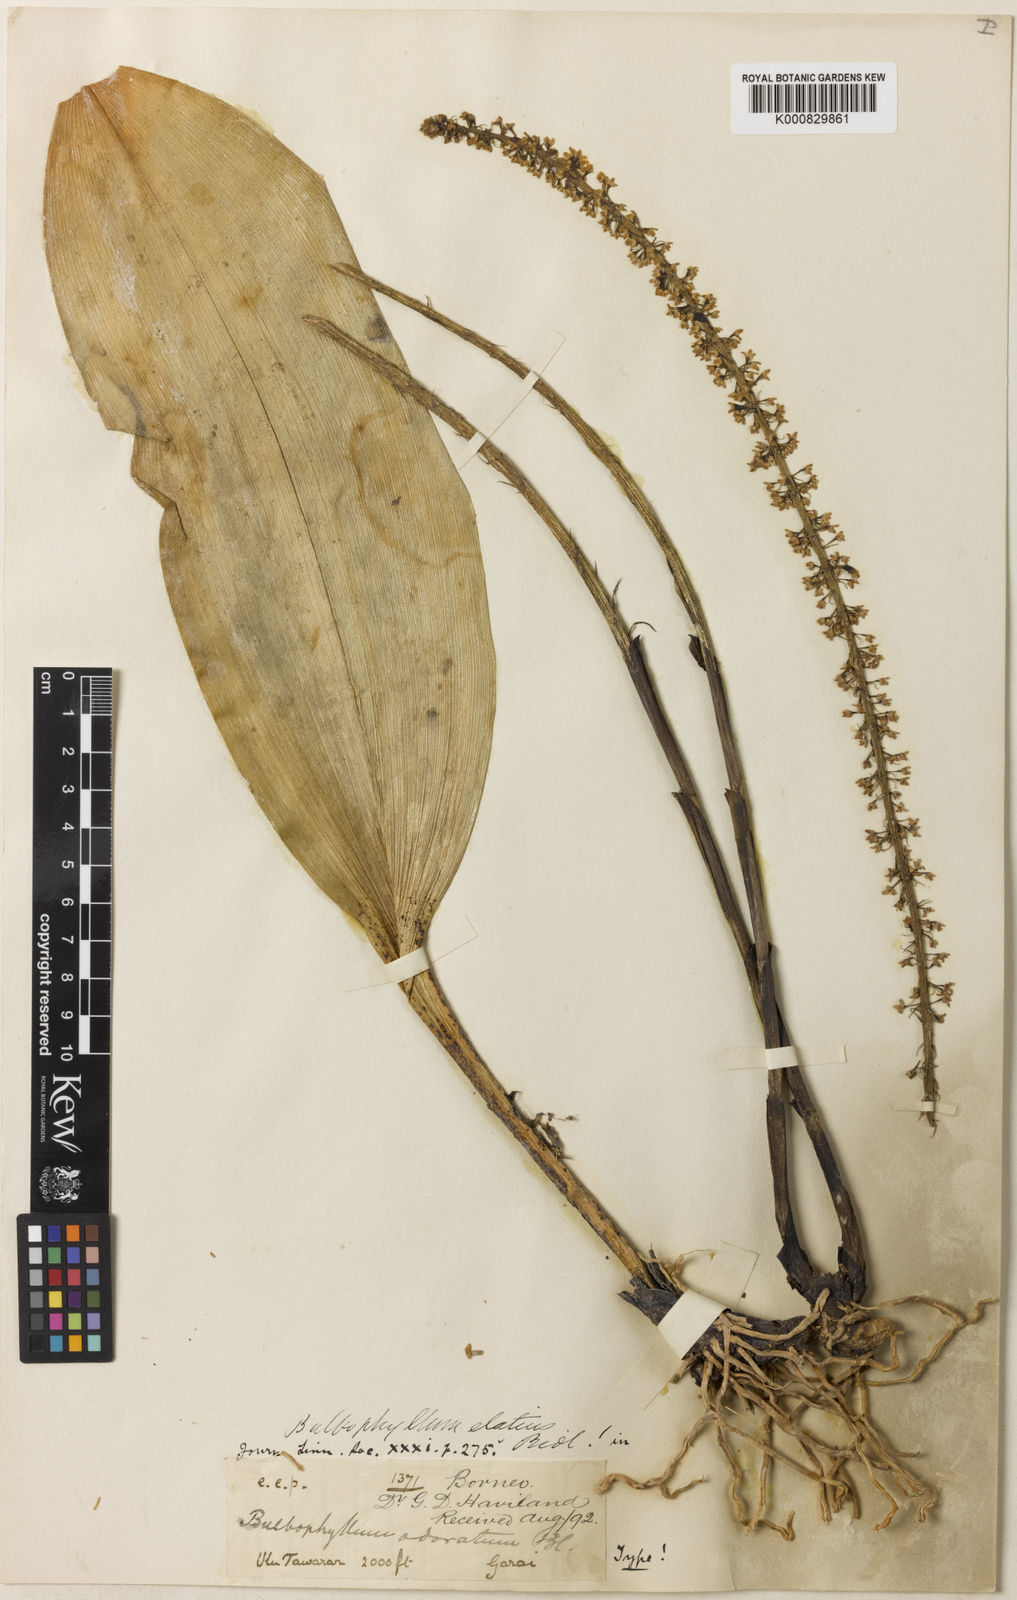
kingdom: Plantae
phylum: Tracheophyta
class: Liliopsida
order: Asparagales
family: Orchidaceae
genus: Bulbophyllum
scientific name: Bulbophyllum odoratum
